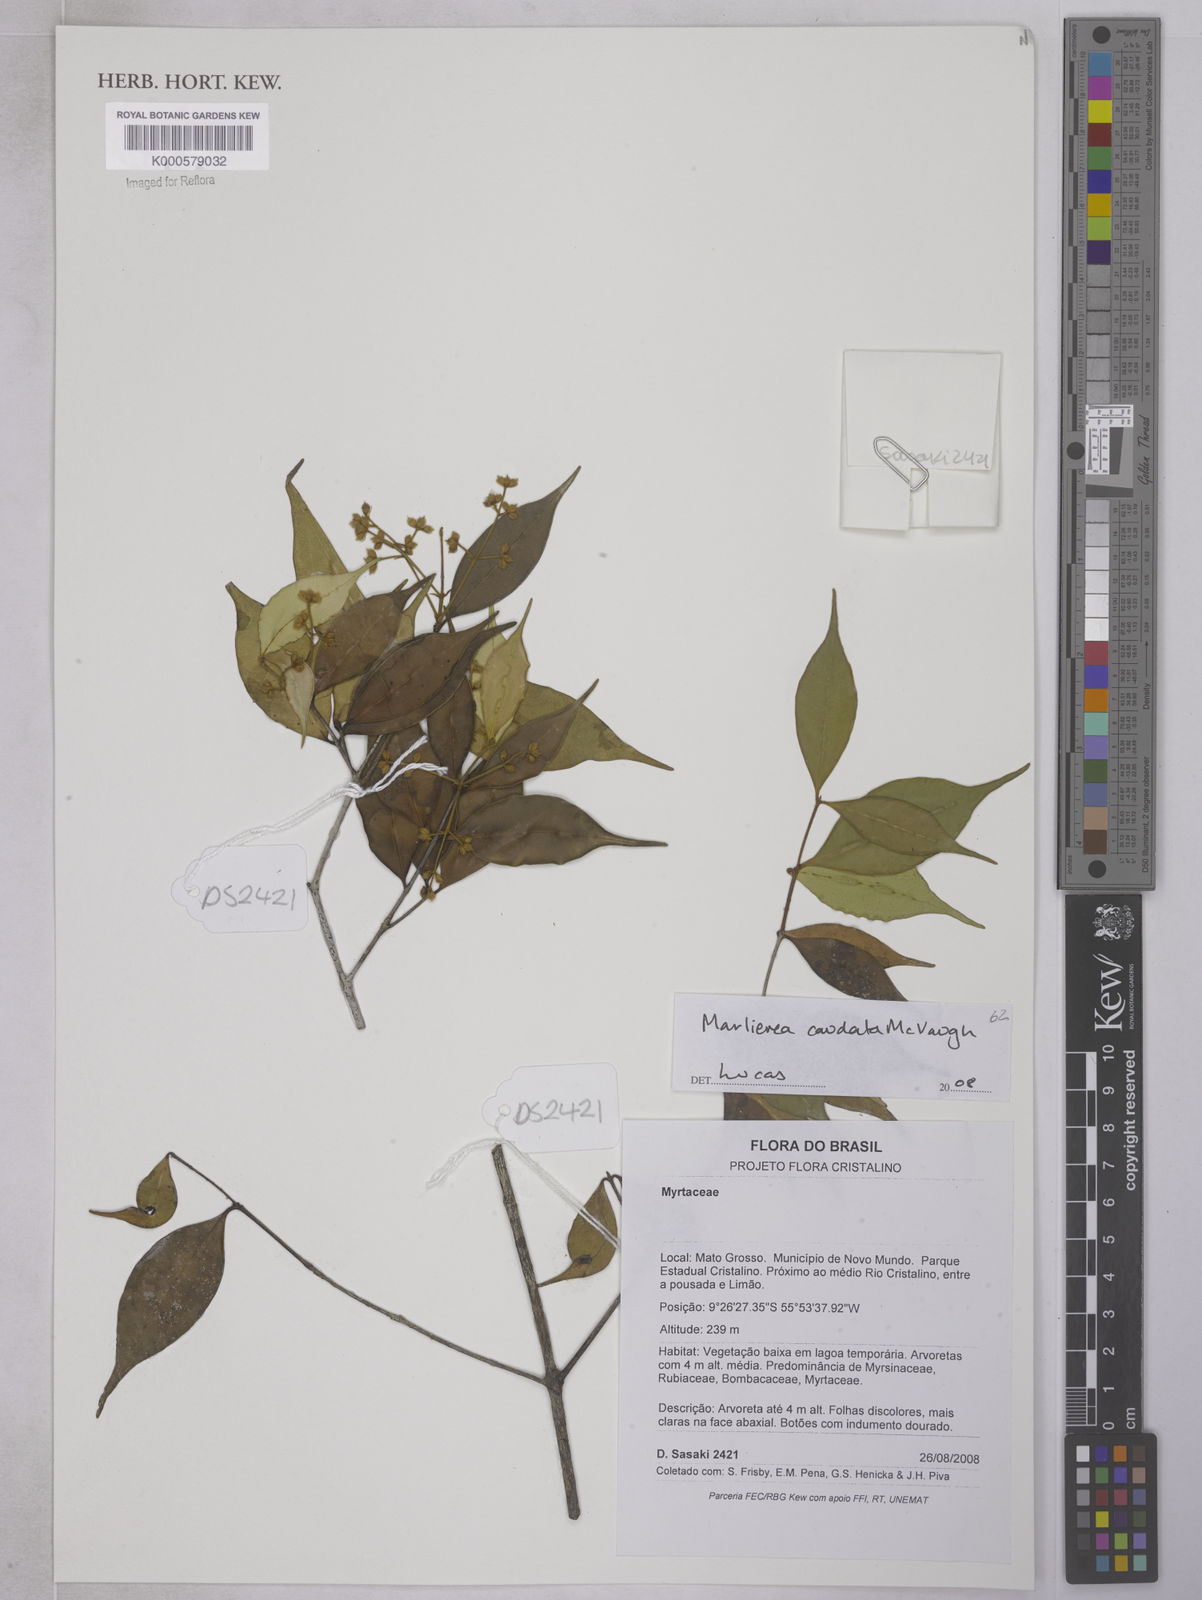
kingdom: Plantae
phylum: Tracheophyta
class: Magnoliopsida
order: Myrtales
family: Myrtaceae
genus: Myrcia
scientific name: Myrcia caudata
